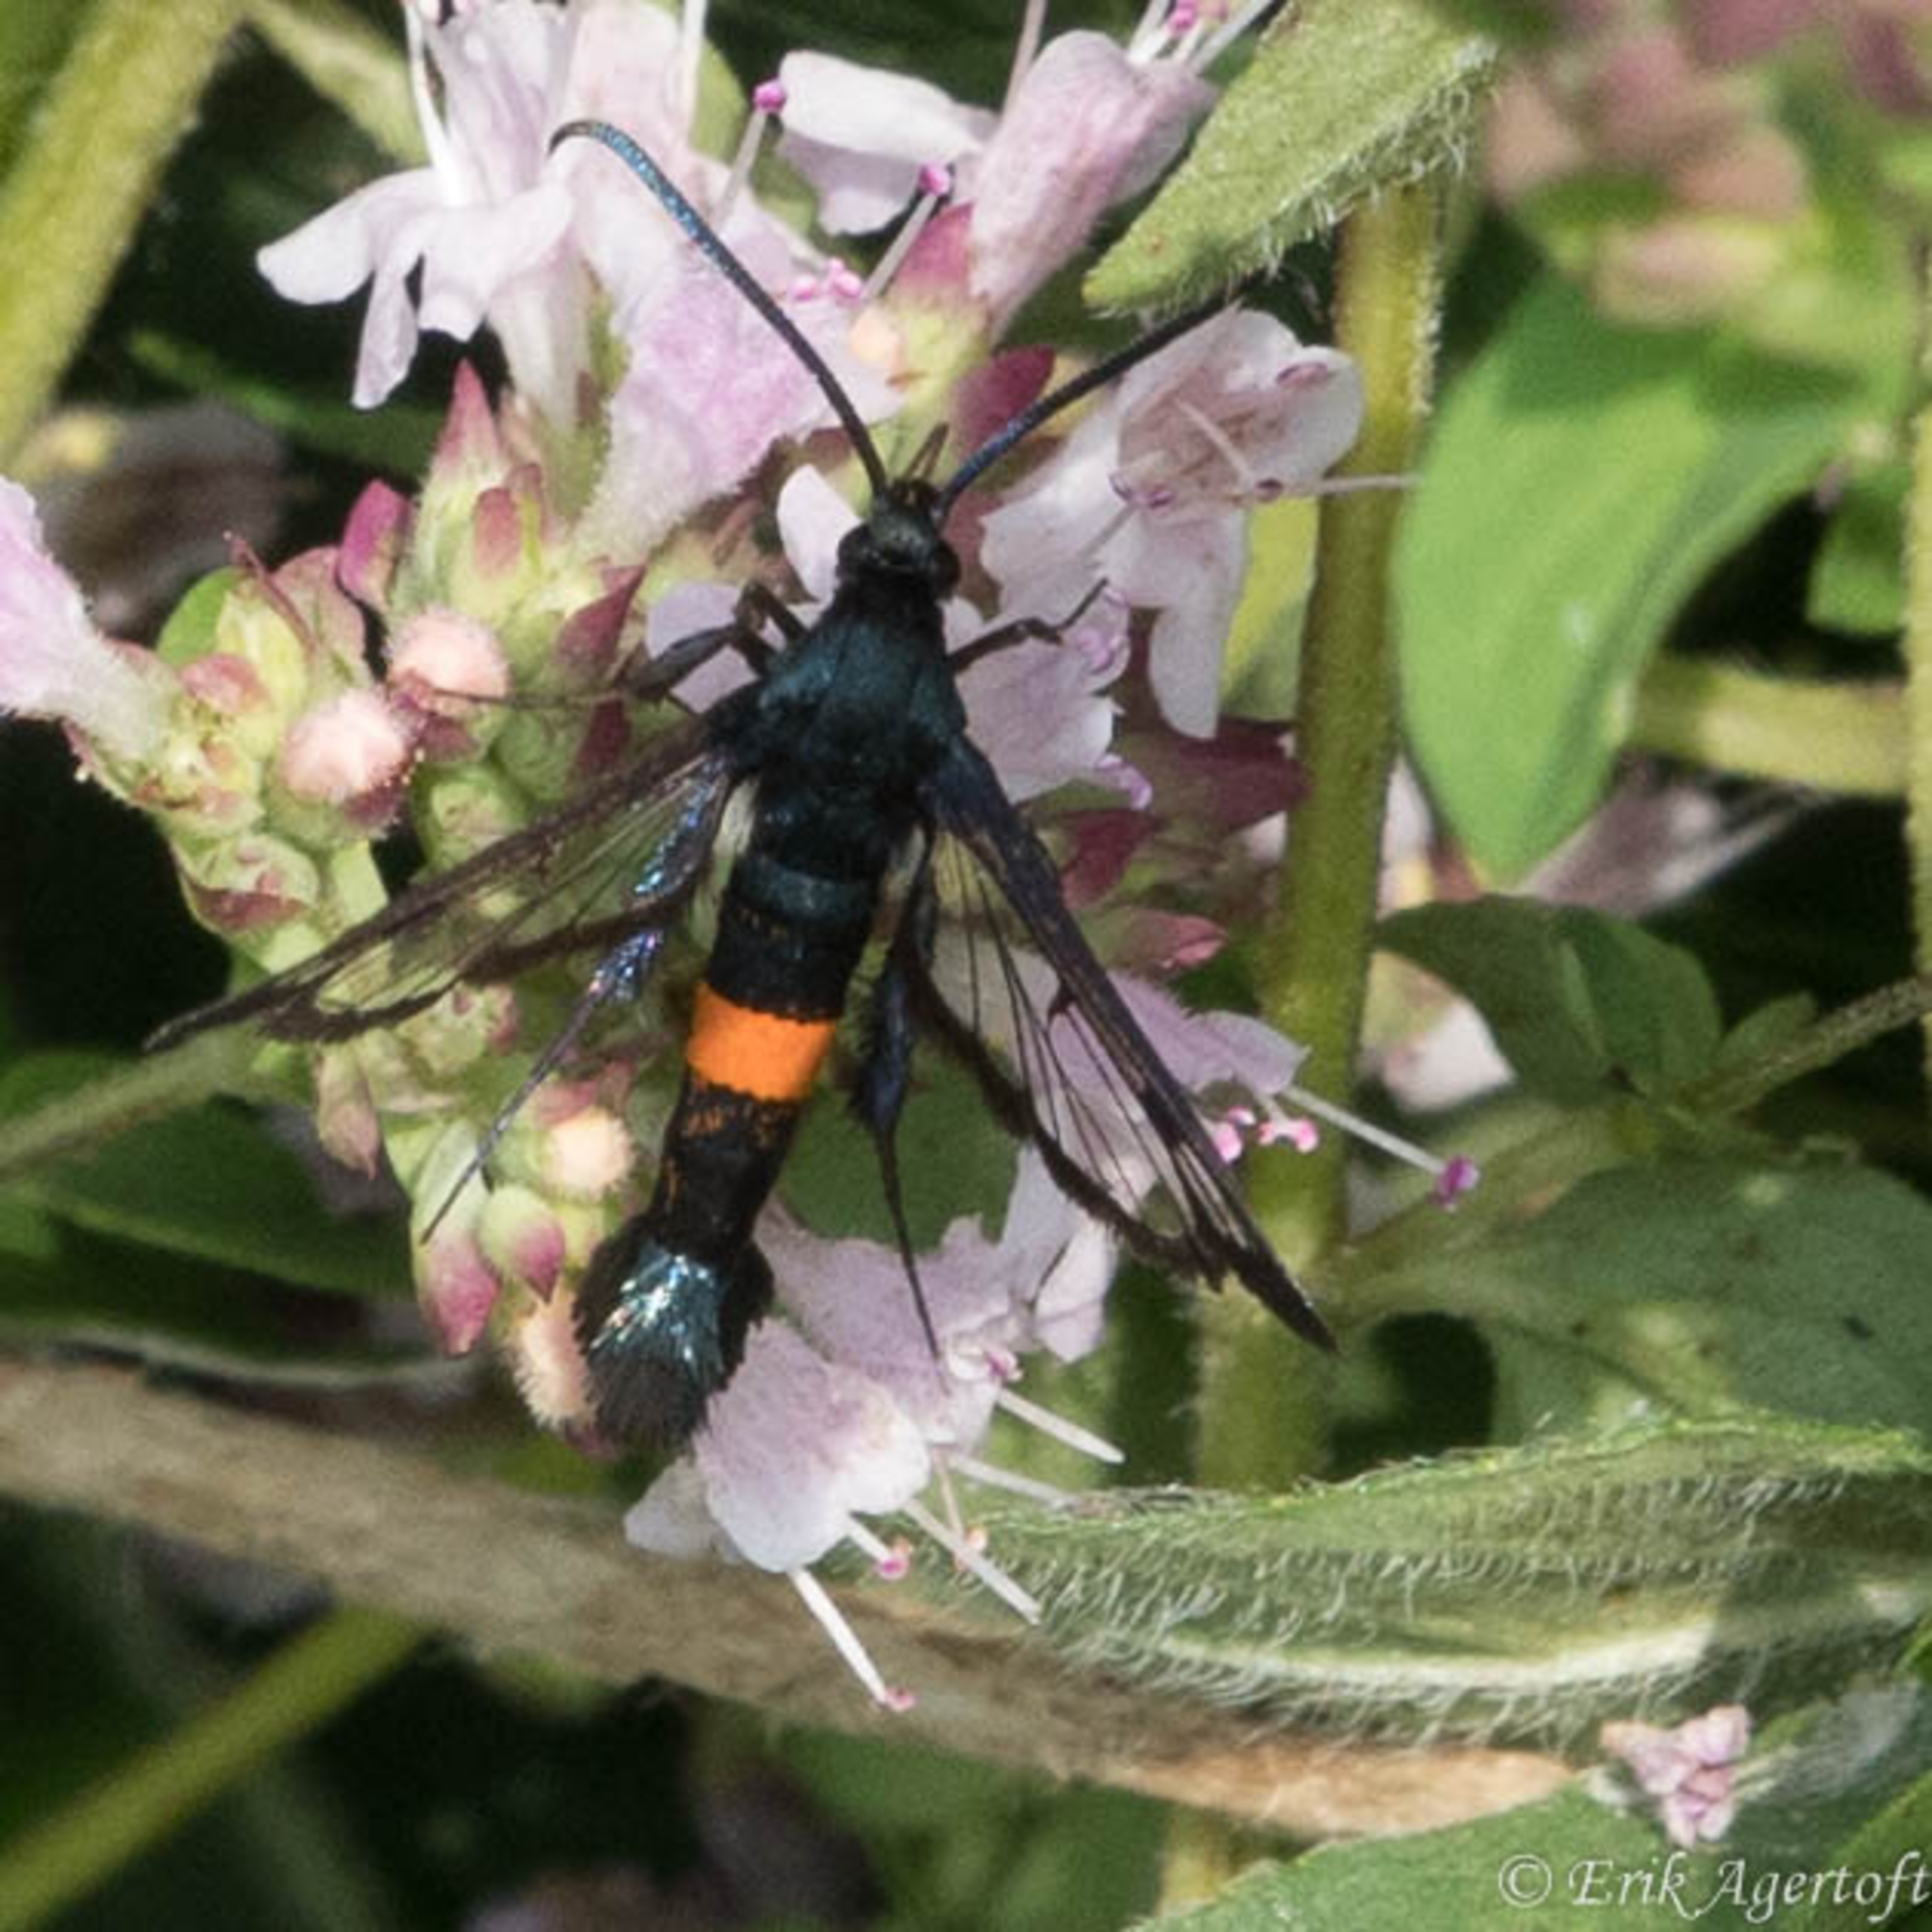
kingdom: Animalia
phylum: Arthropoda
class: Insecta
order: Lepidoptera
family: Sesiidae
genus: Synanthedon
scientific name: Synanthedon myopaeformis
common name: Æbleglassværmer
